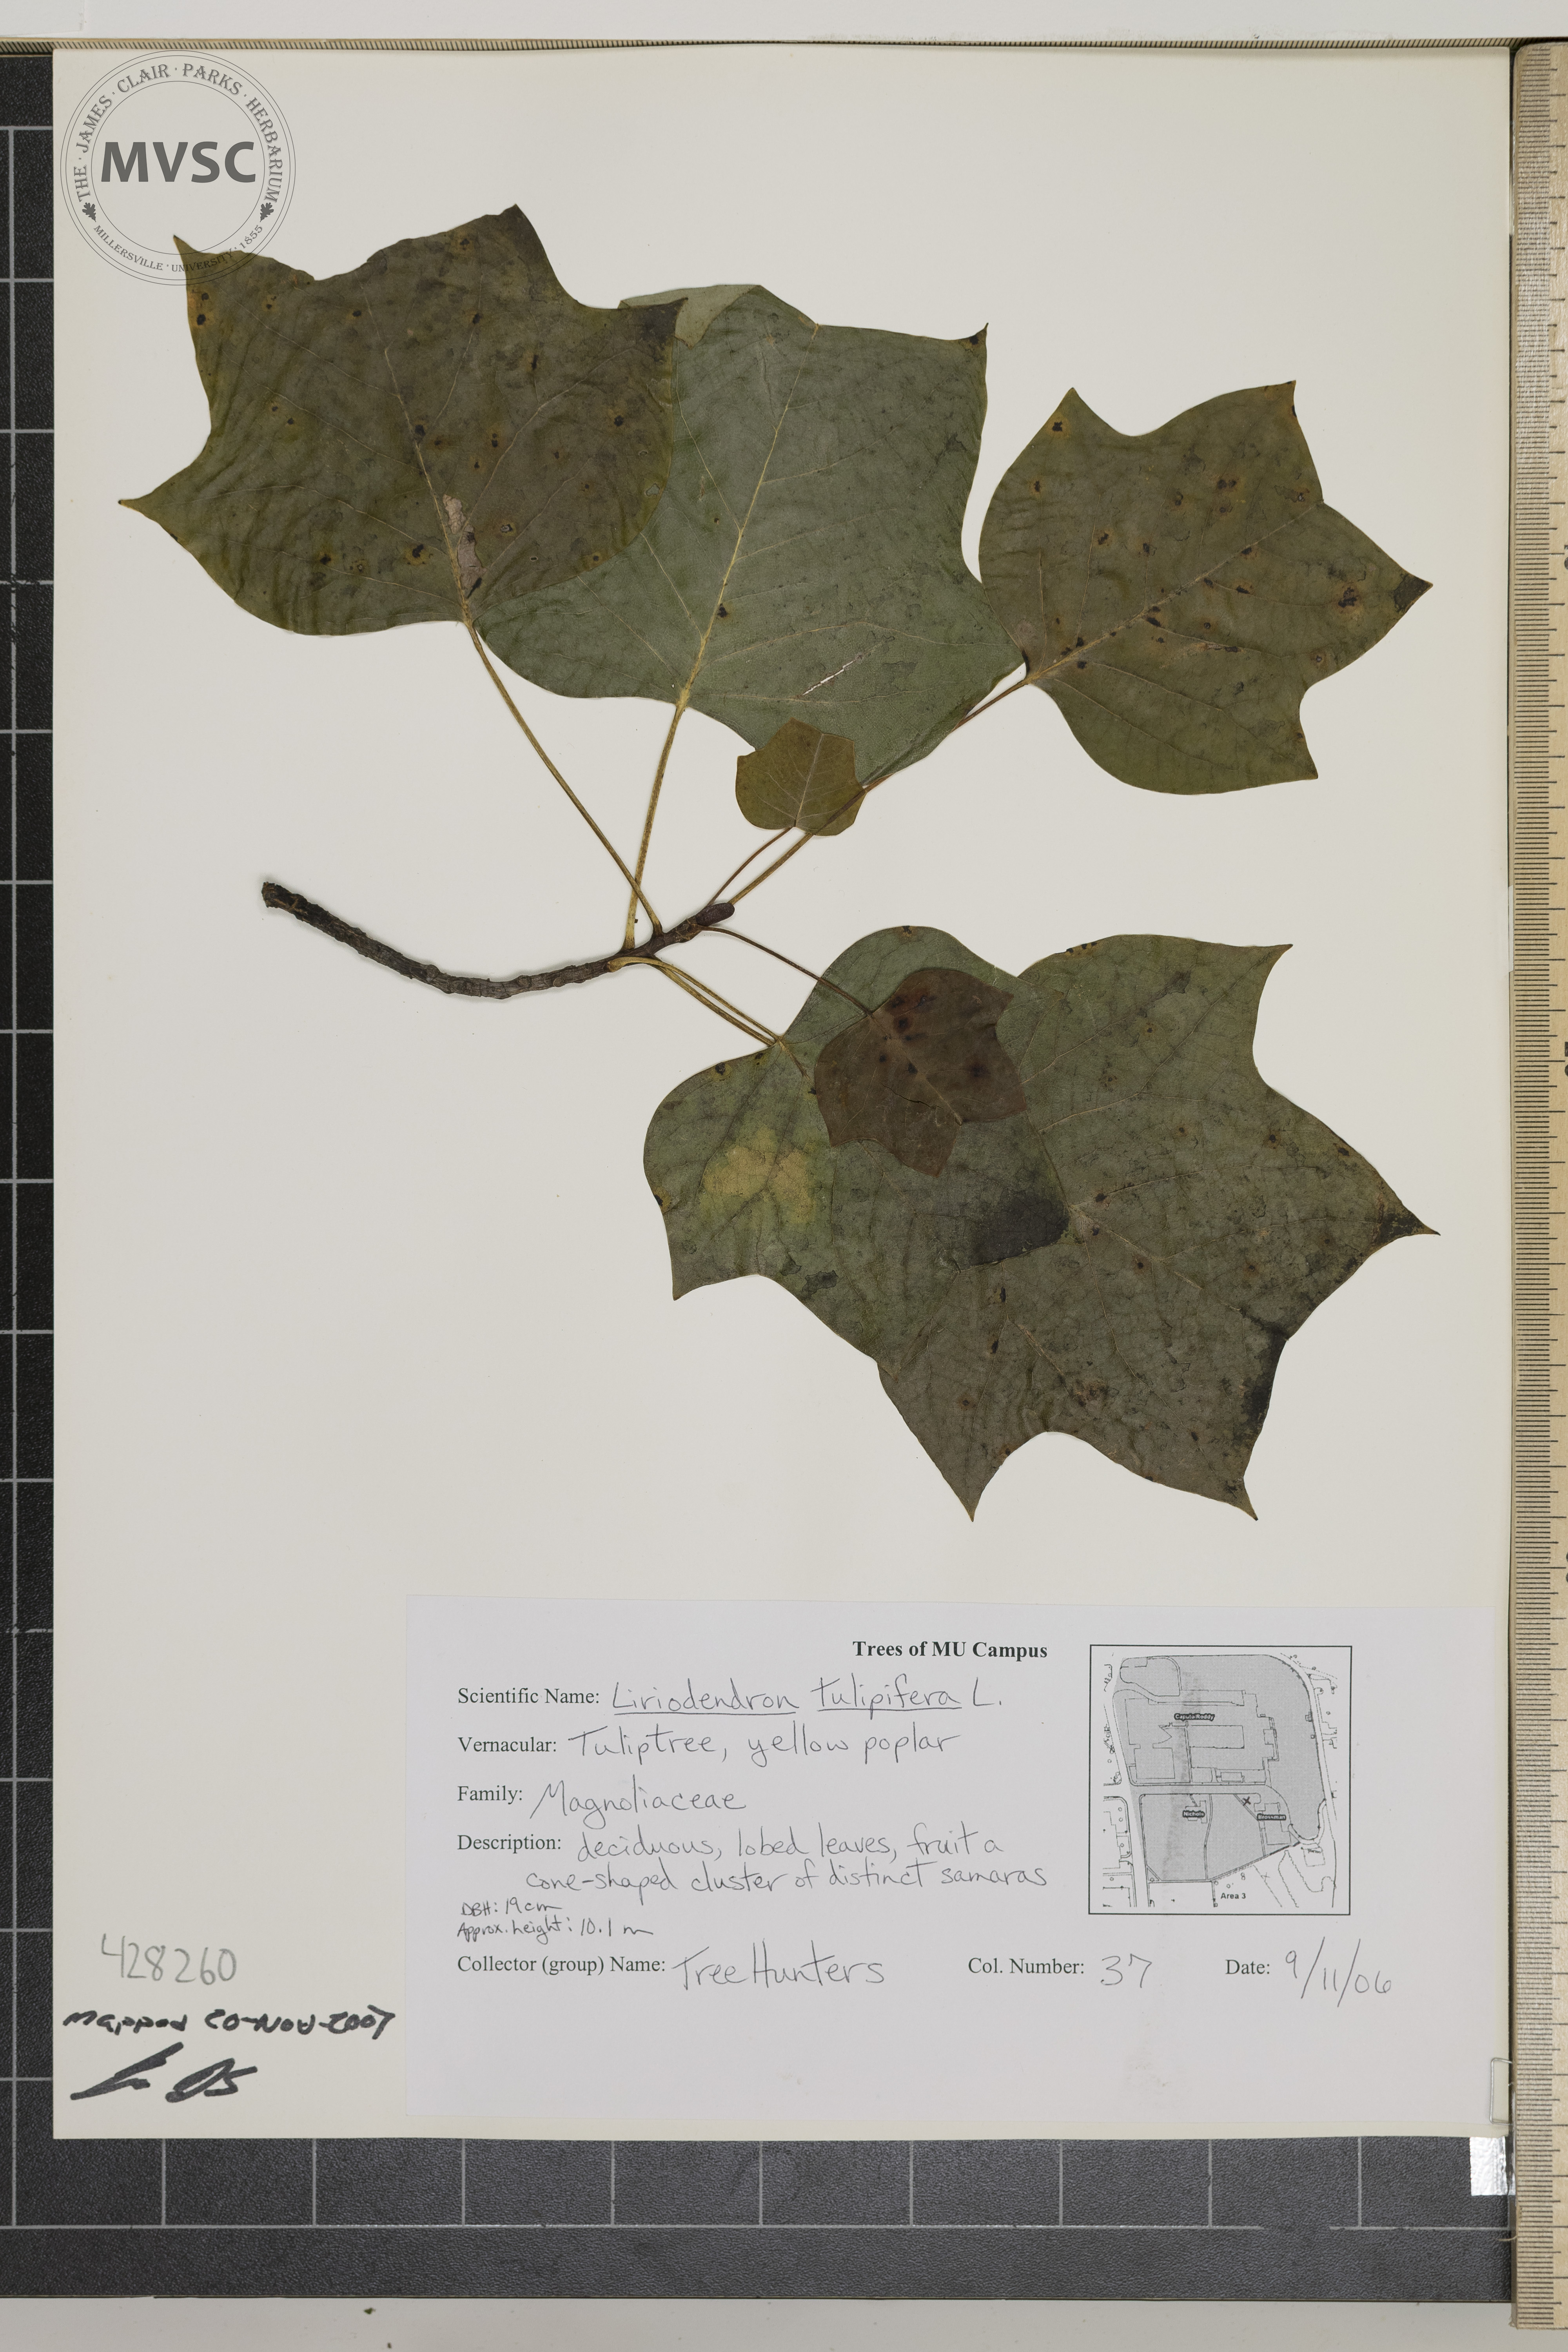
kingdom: Plantae
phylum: Tracheophyta
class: Magnoliopsida
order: Magnoliales
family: Magnoliaceae
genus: Liriodendron
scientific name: Liriodendron tulipifera
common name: Tulip Poplar
